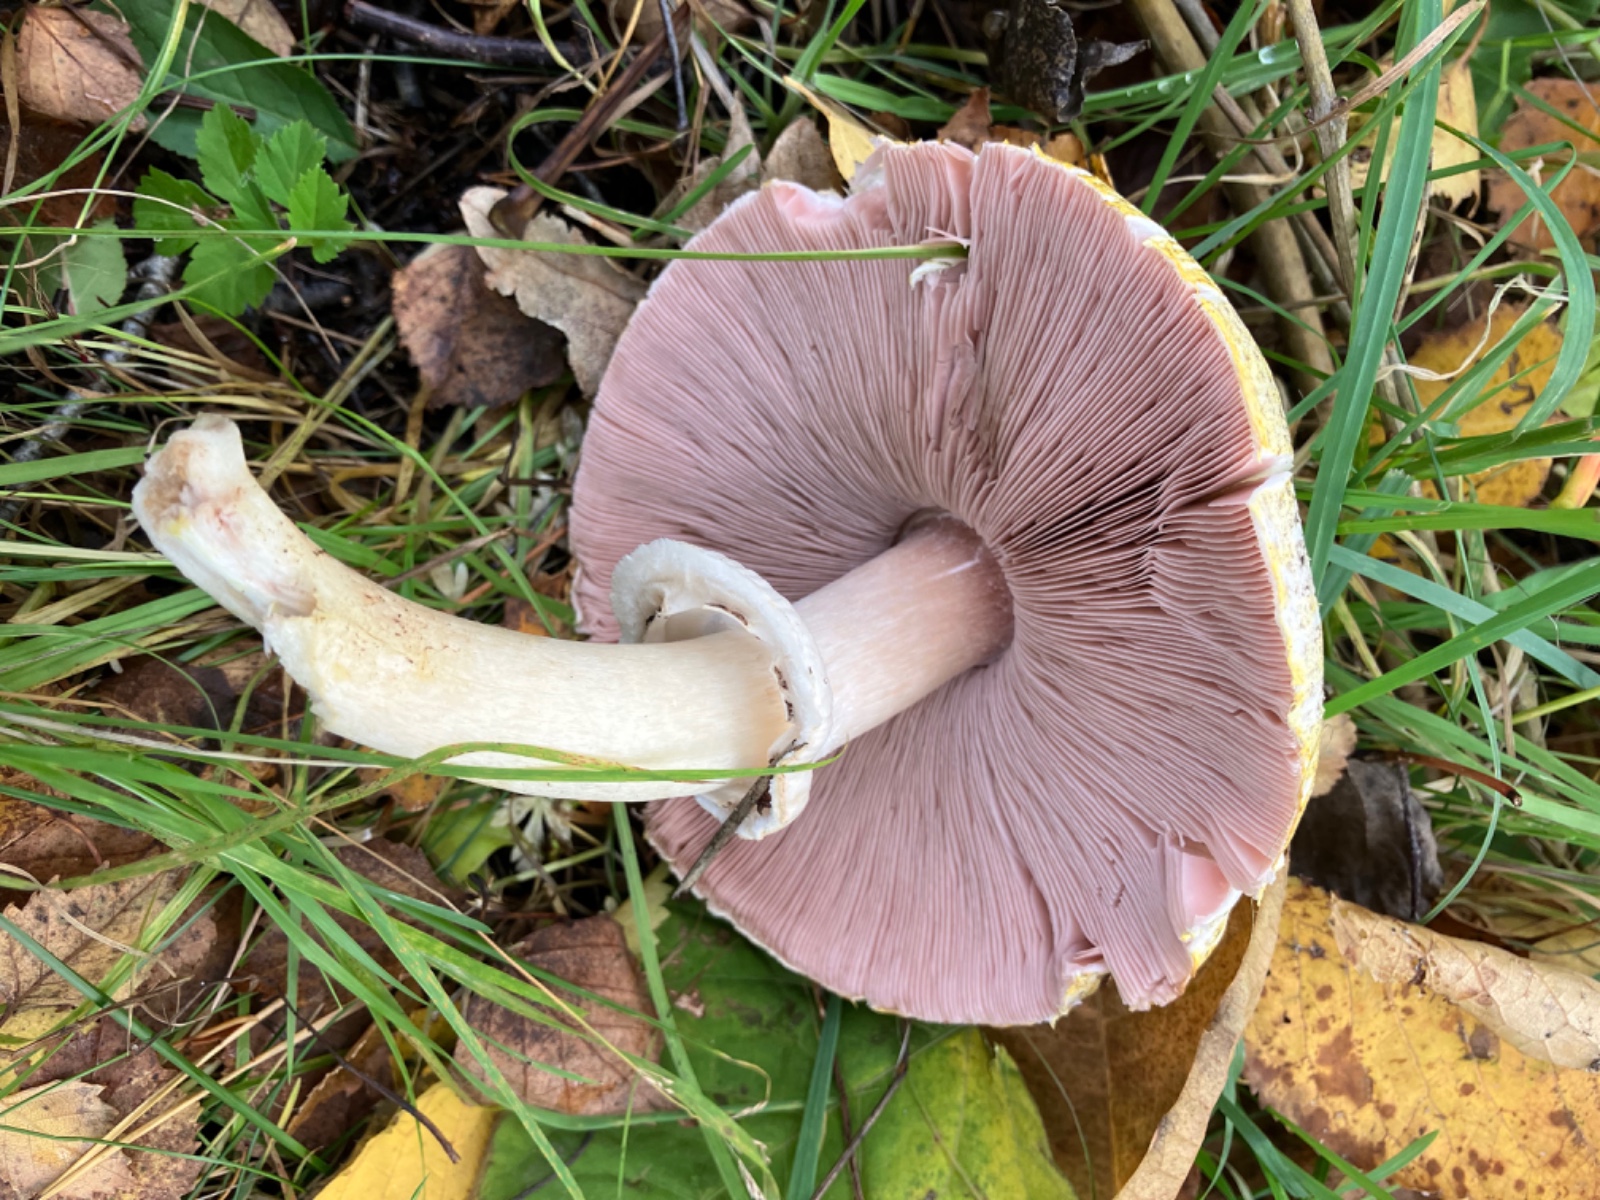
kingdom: Fungi
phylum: Basidiomycota
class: Agaricomycetes
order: Agaricales
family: Agaricaceae
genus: Agaricus
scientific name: Agaricus moelleri
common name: perlehøne-champignon
